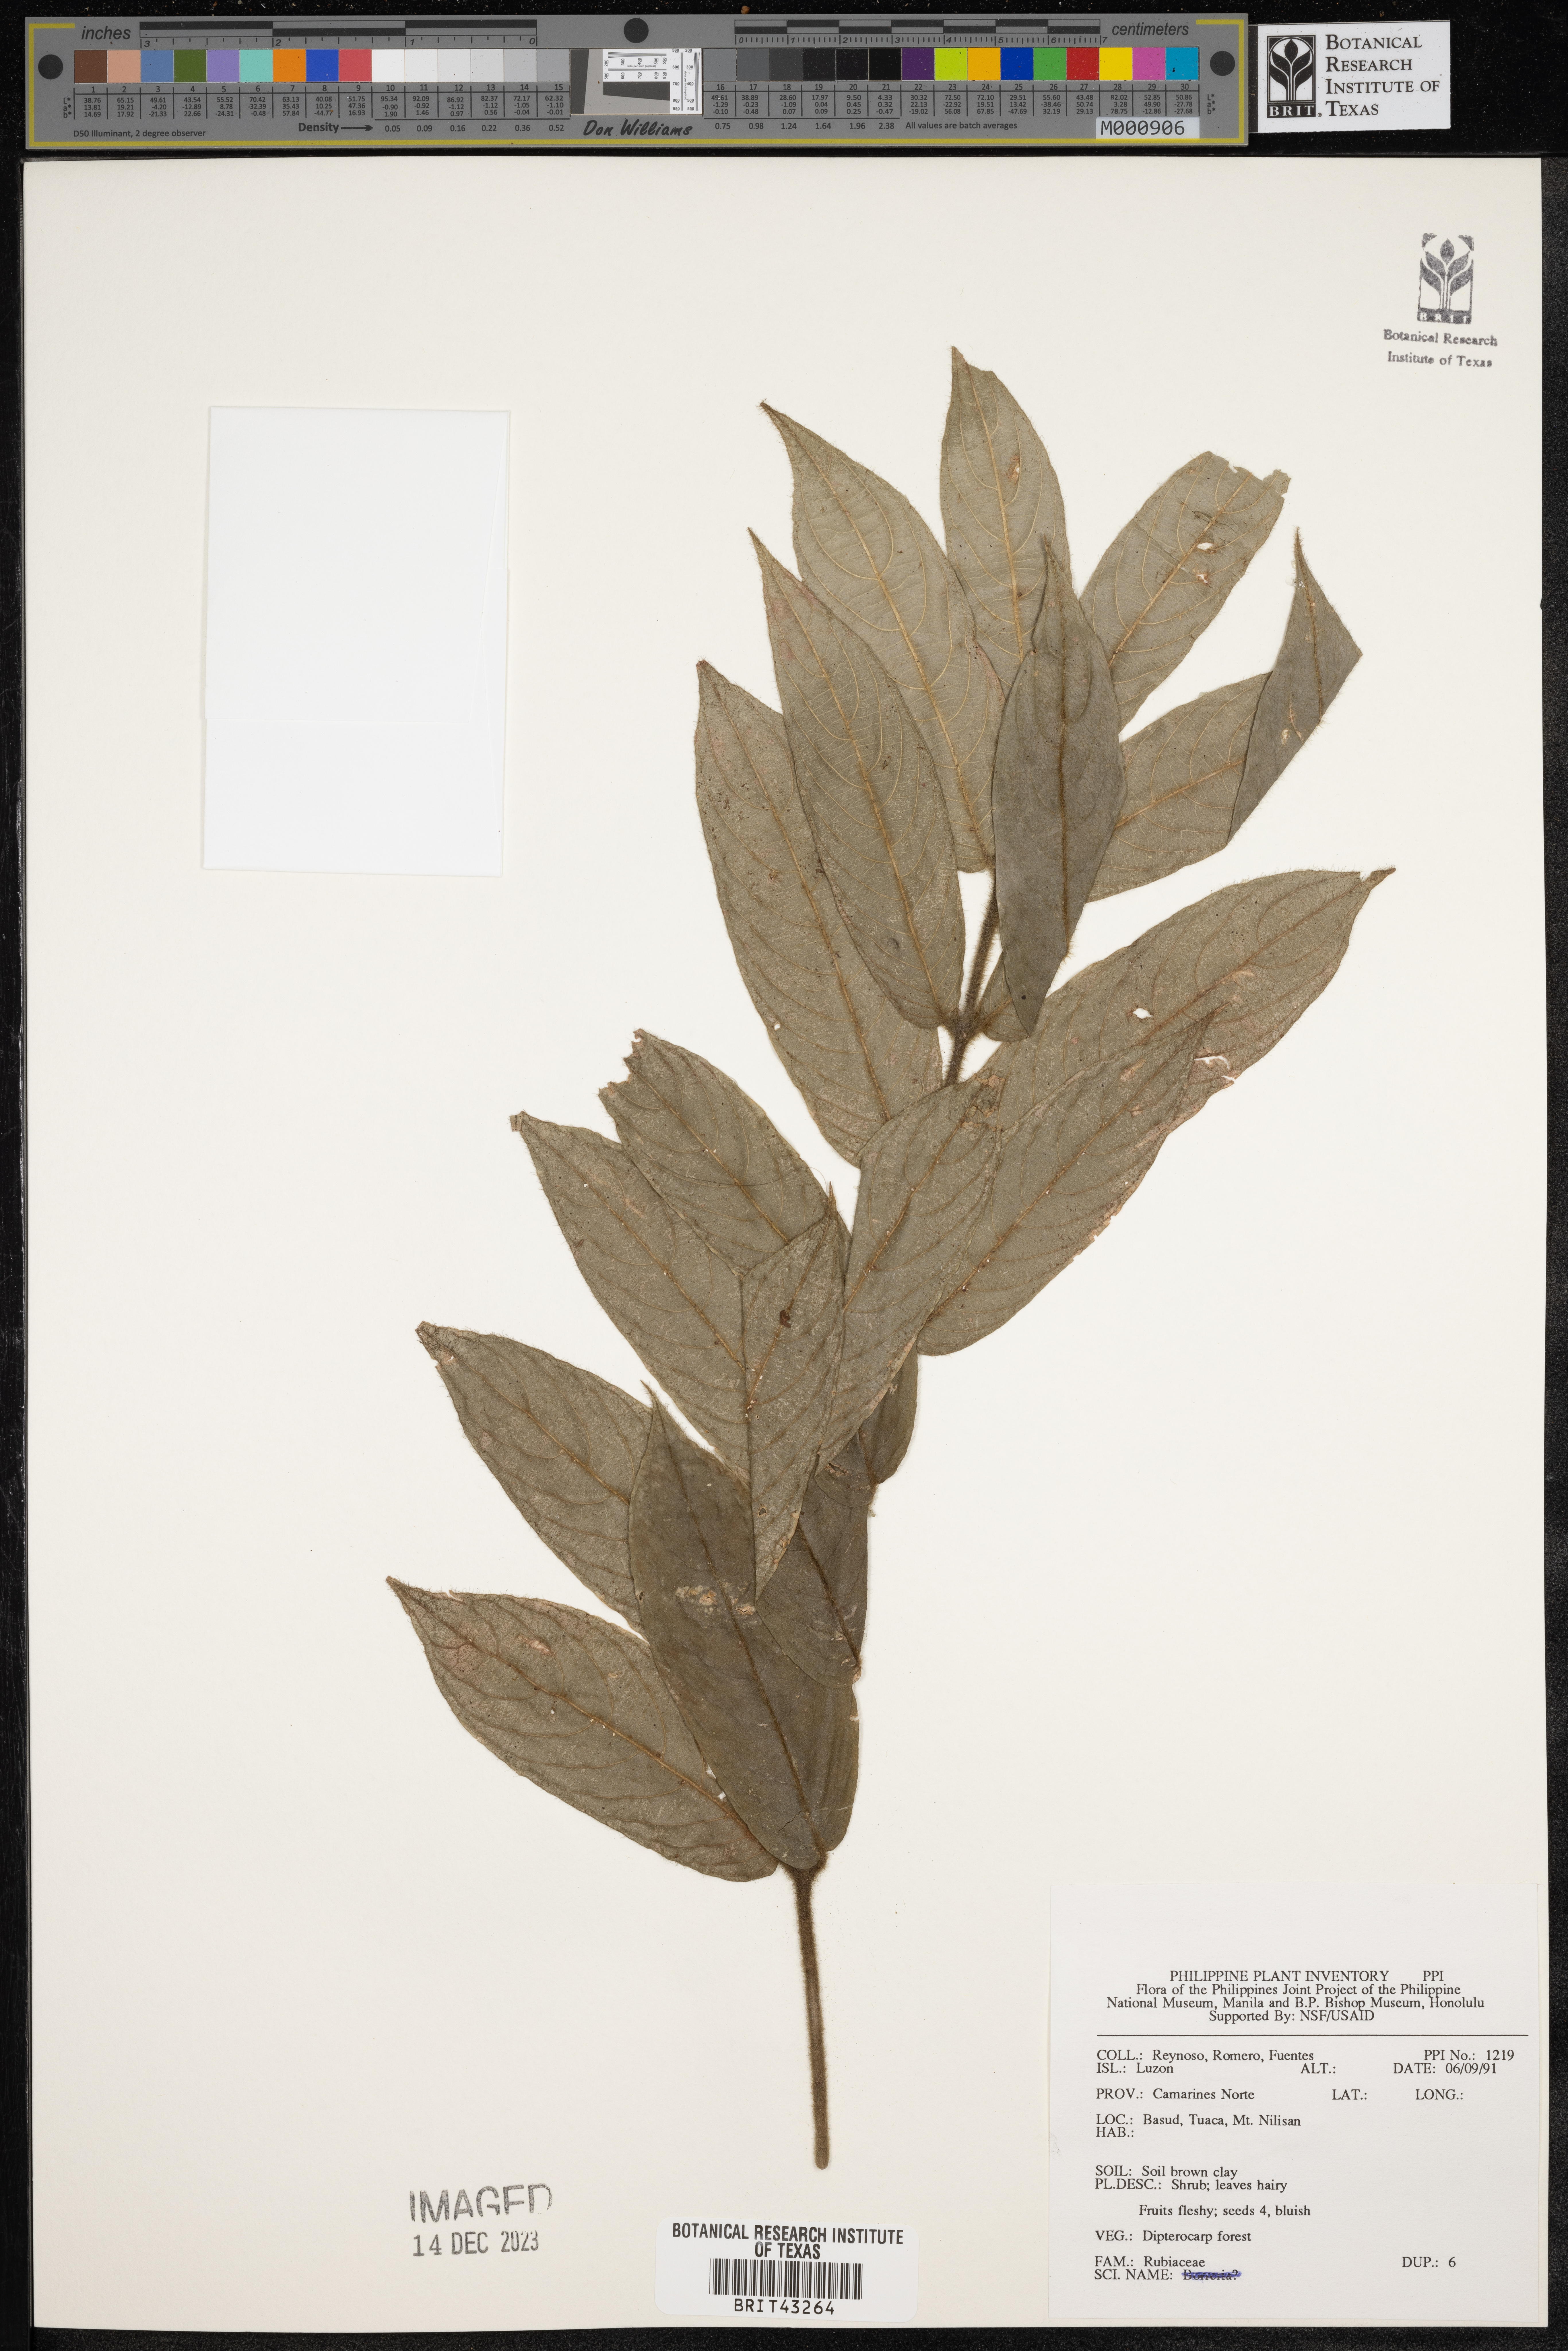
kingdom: Plantae
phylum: Tracheophyta
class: Magnoliopsida
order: Gentianales
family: Rubiaceae
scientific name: Rubiaceae
